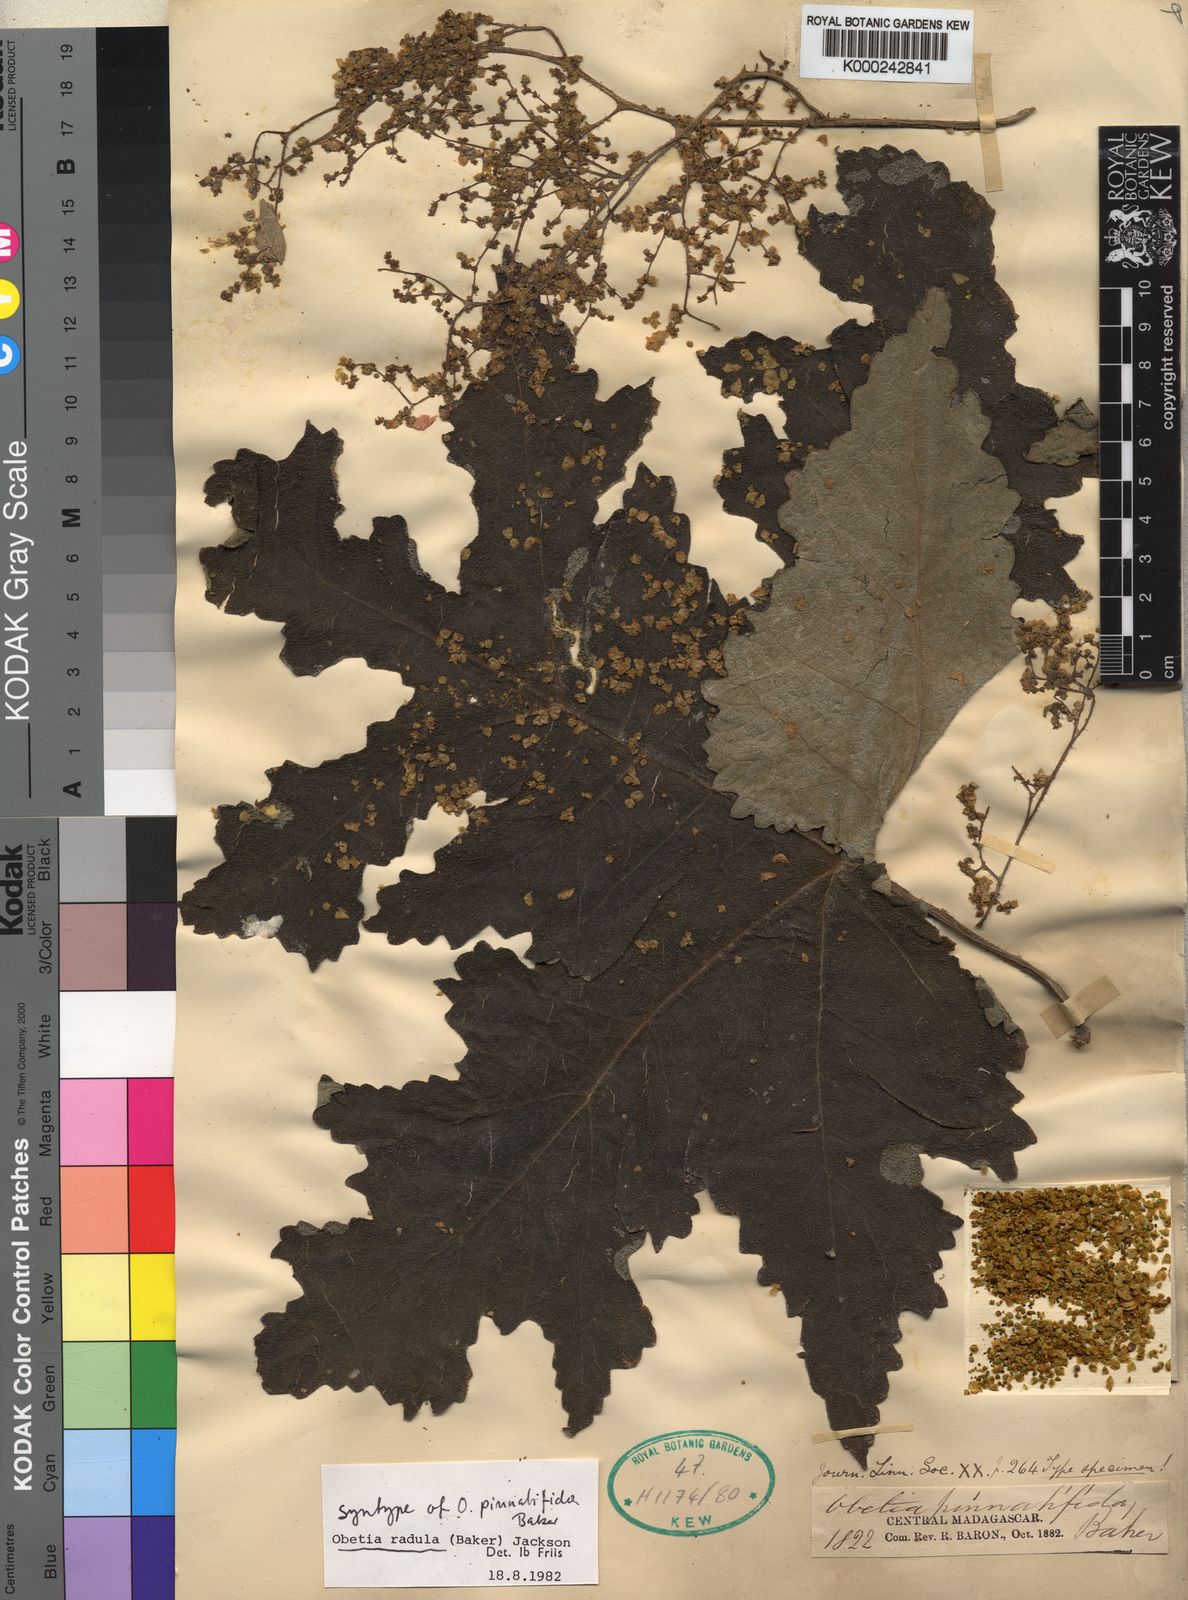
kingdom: Plantae
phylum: Tracheophyta
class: Magnoliopsida
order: Rosales
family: Urticaceae
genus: Obetia
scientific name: Obetia radula
